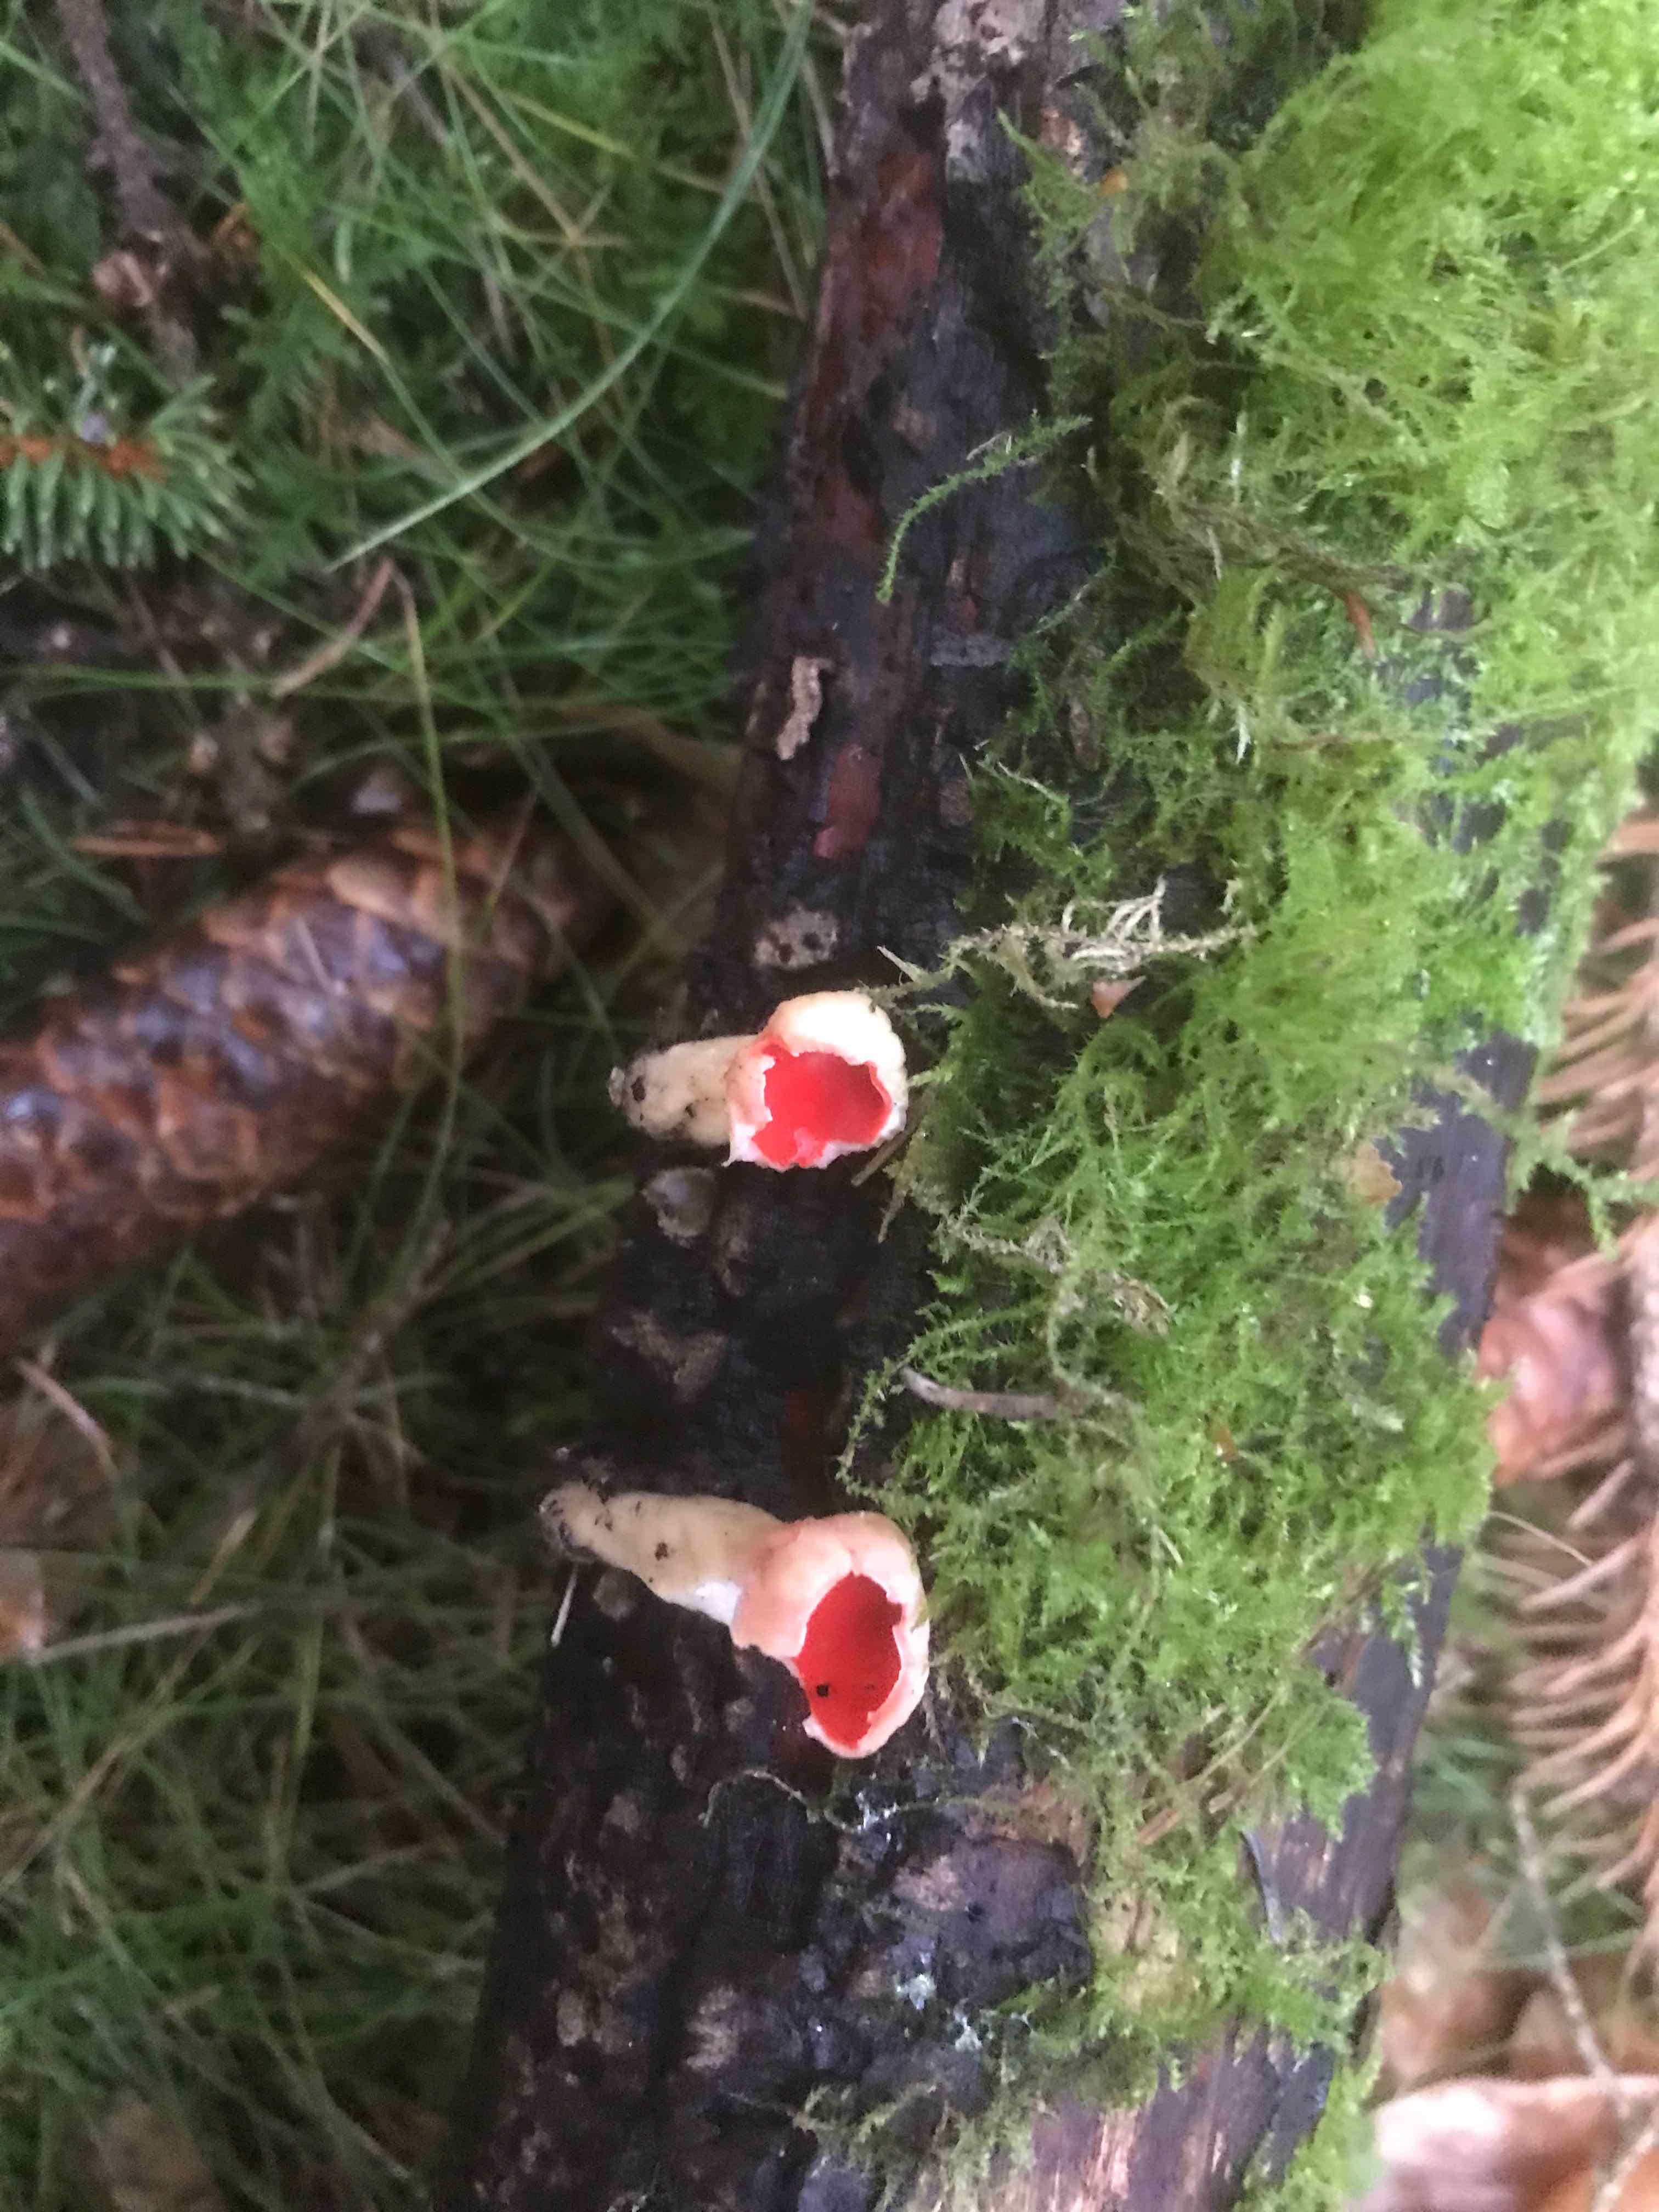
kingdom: Fungi
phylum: Ascomycota
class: Pezizomycetes
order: Pezizales
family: Sarcoscyphaceae
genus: Sarcoscypha
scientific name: Sarcoscypha austriaca
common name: krølhåret pragtbæger
